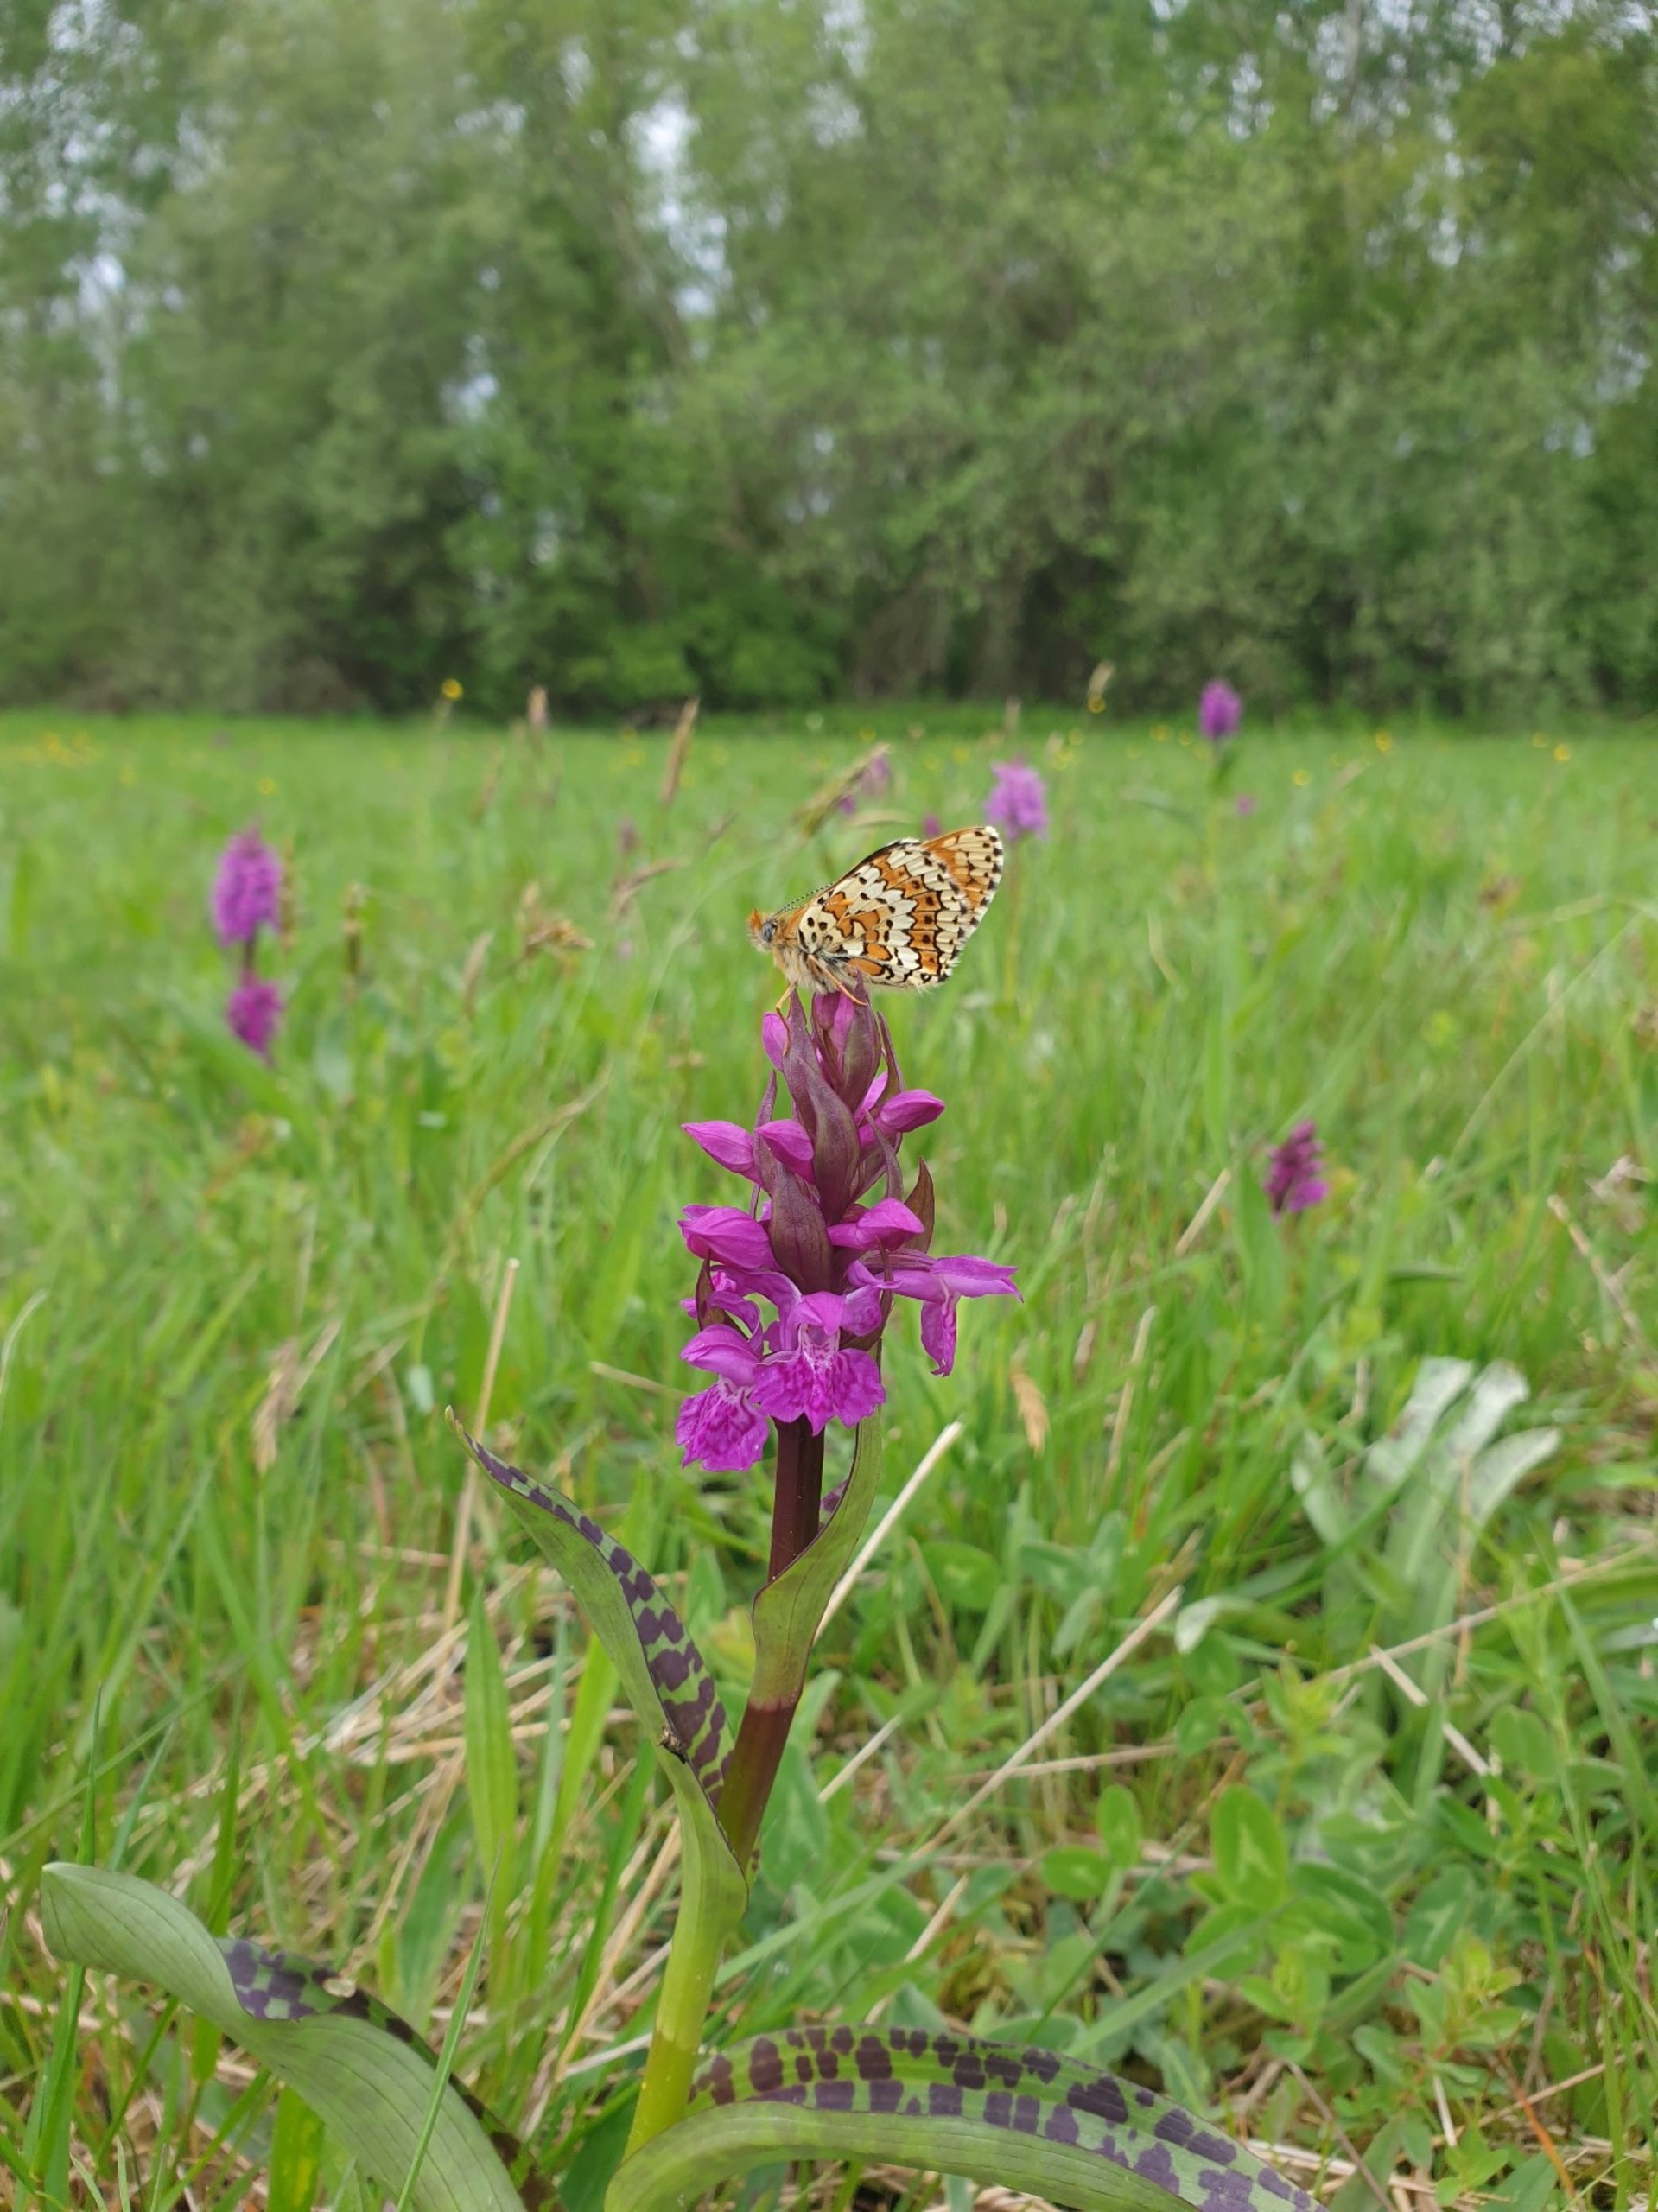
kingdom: Plantae
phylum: Tracheophyta
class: Liliopsida
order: Asparagales
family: Orchidaceae
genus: Dactylorhiza
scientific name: Dactylorhiza majalis
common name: Maj-gøgeurt
